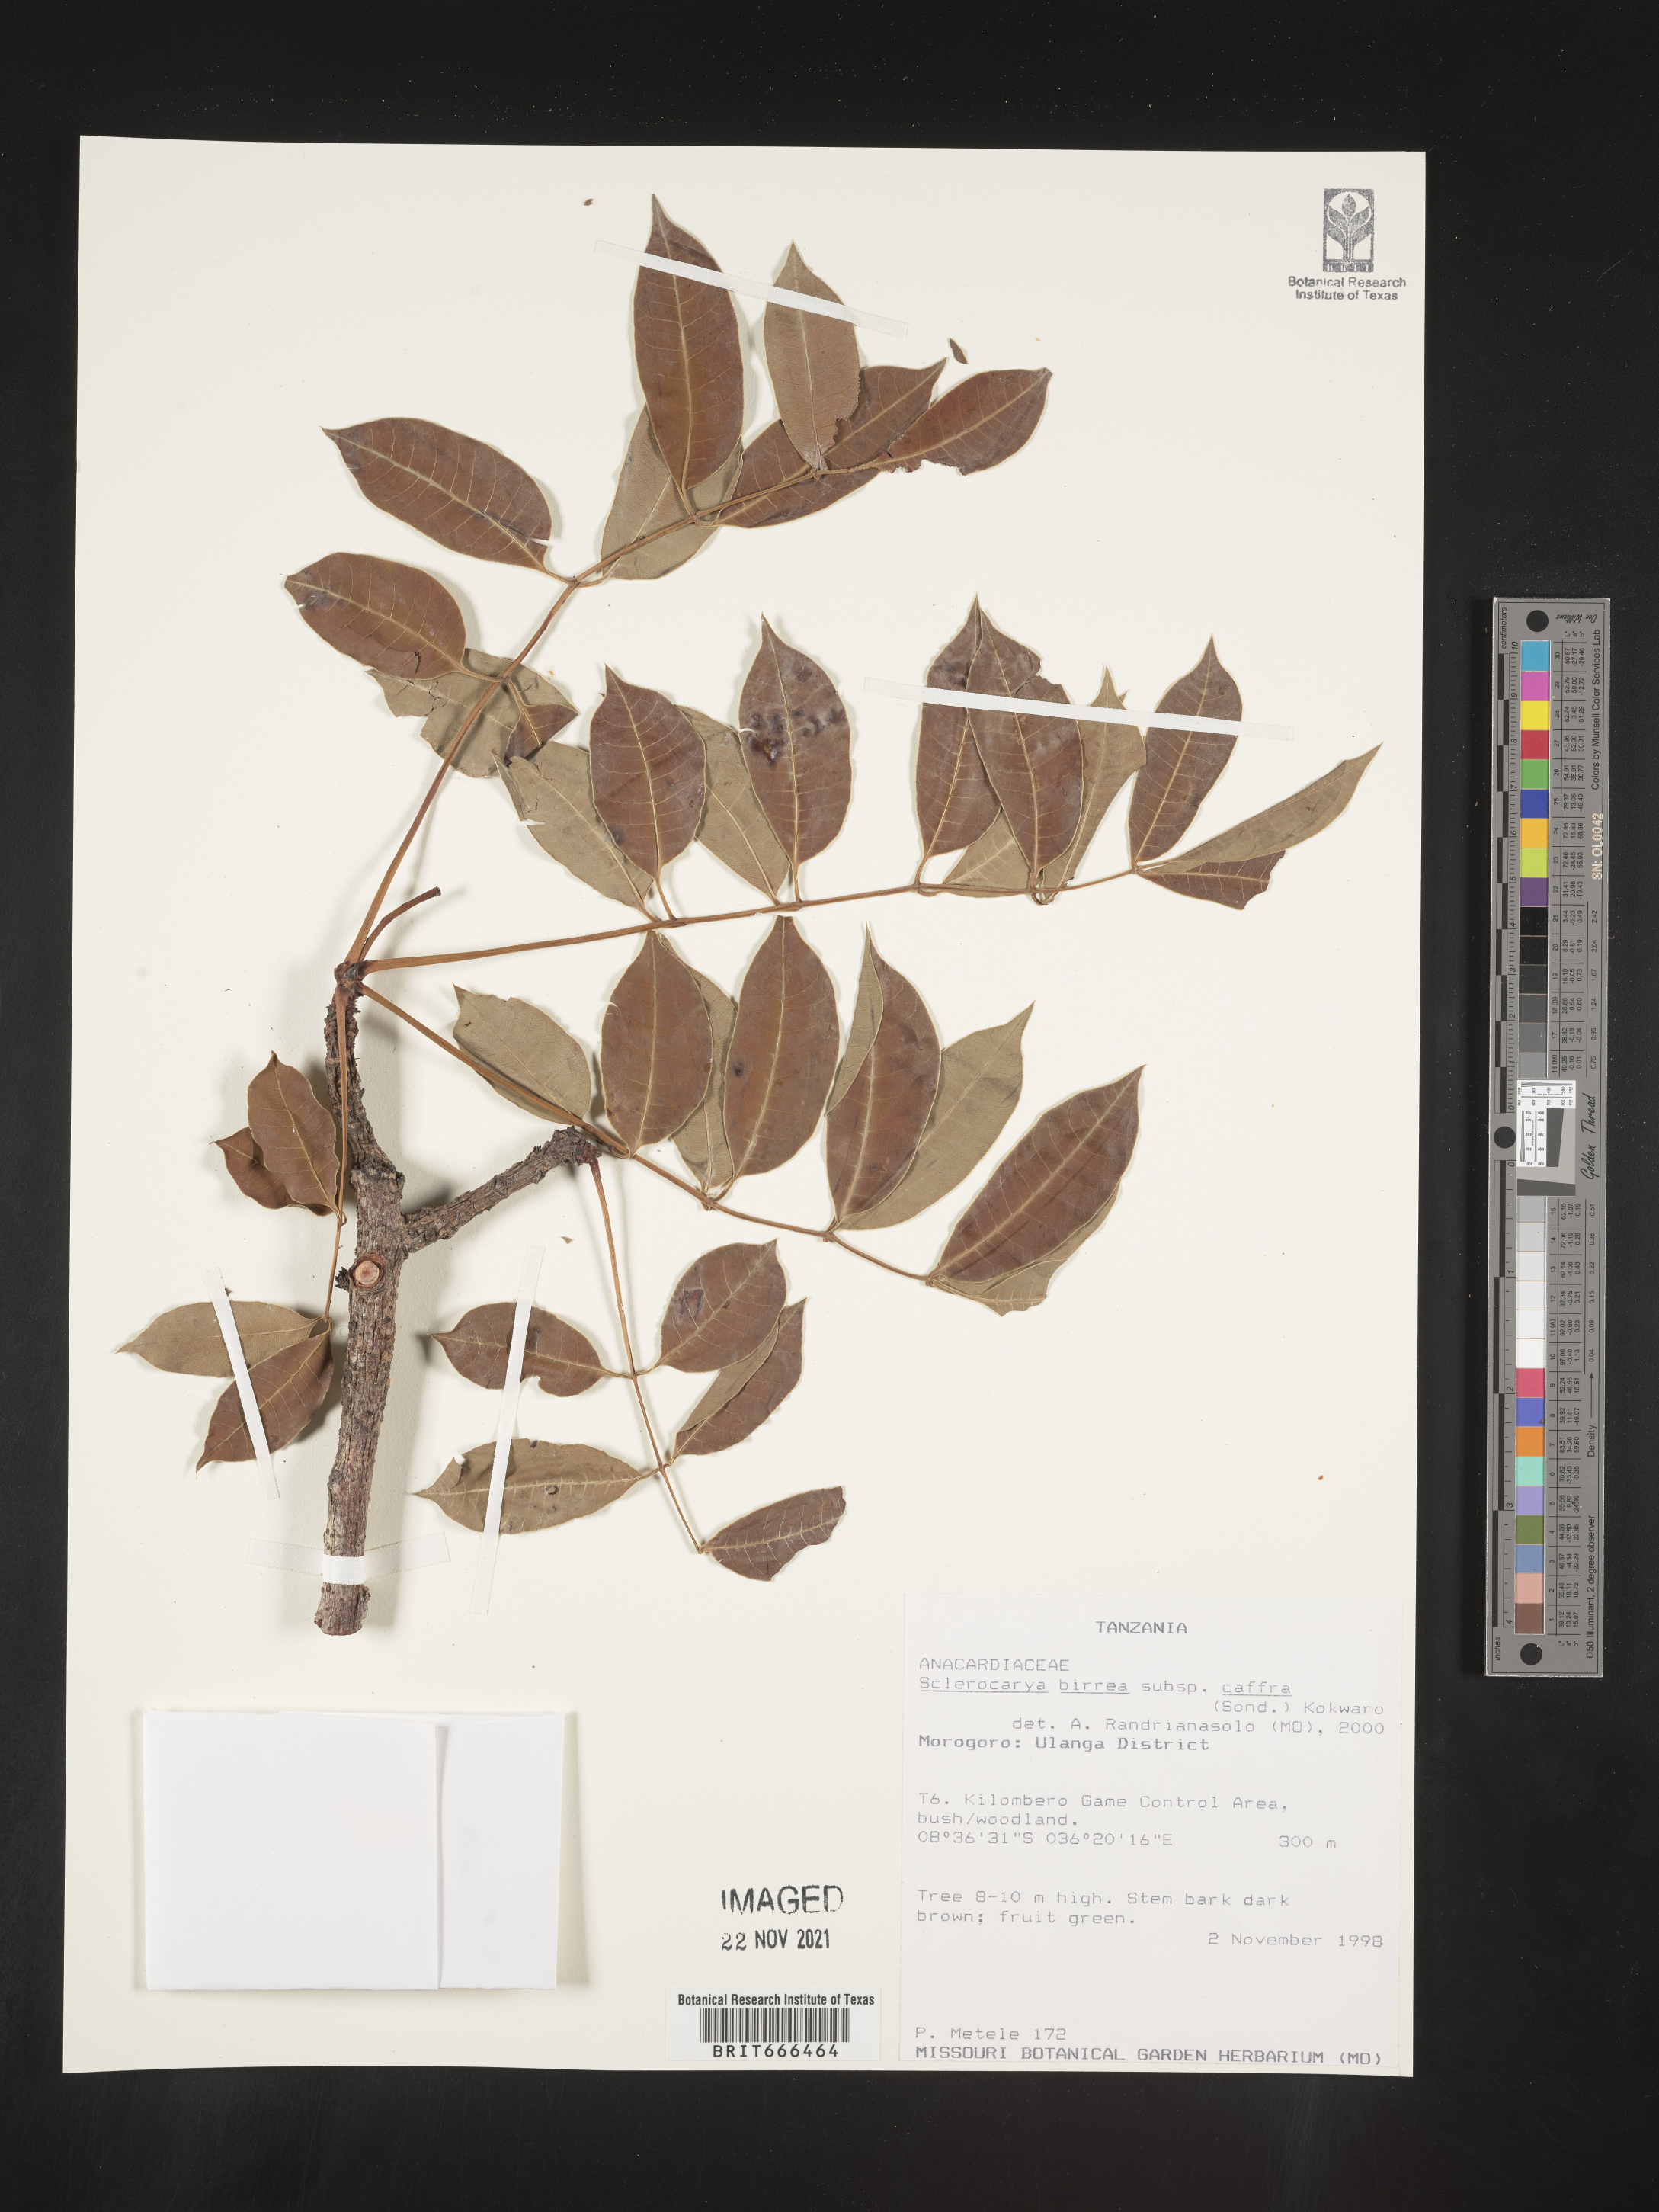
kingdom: Plantae
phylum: Tracheophyta
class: Magnoliopsida
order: Sapindales
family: Anacardiaceae
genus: Sclerocarya
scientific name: Sclerocarya birrea
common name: Marula
